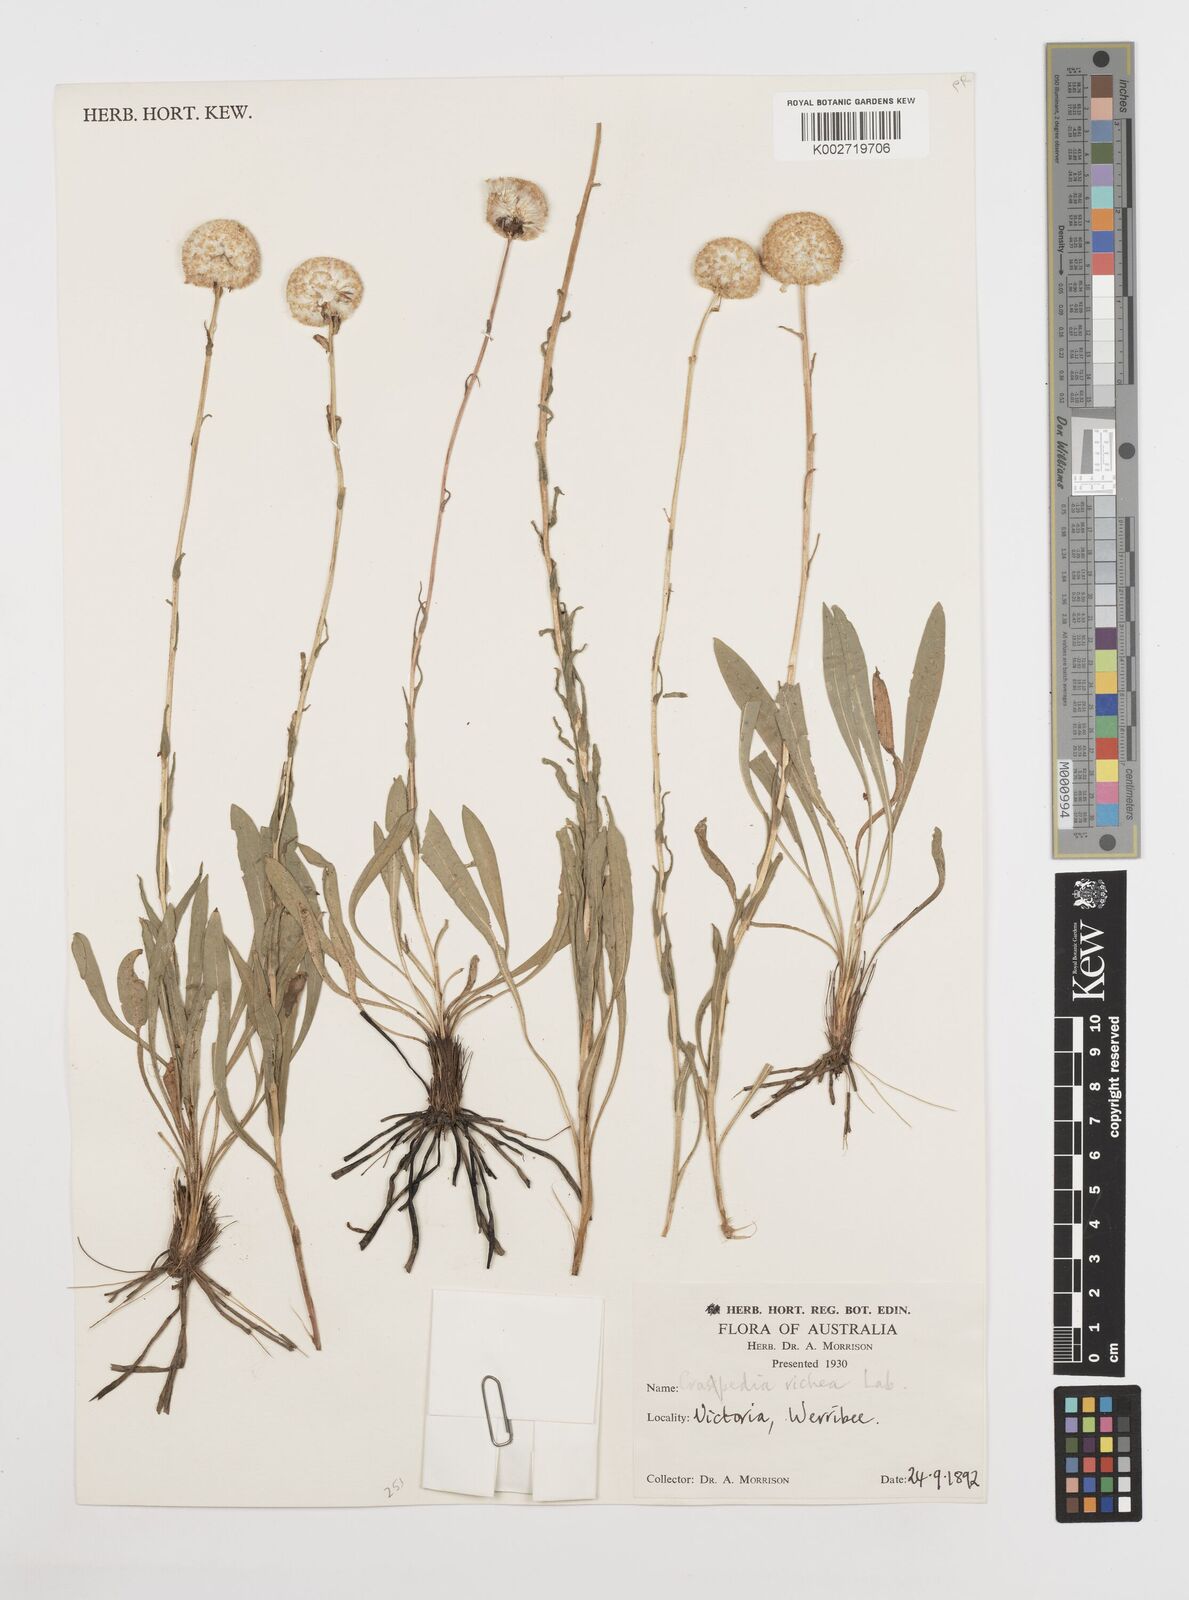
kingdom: Plantae
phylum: Tracheophyta
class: Magnoliopsida
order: Asterales
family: Asteraceae
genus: Craspedia
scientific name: Craspedia glauca
